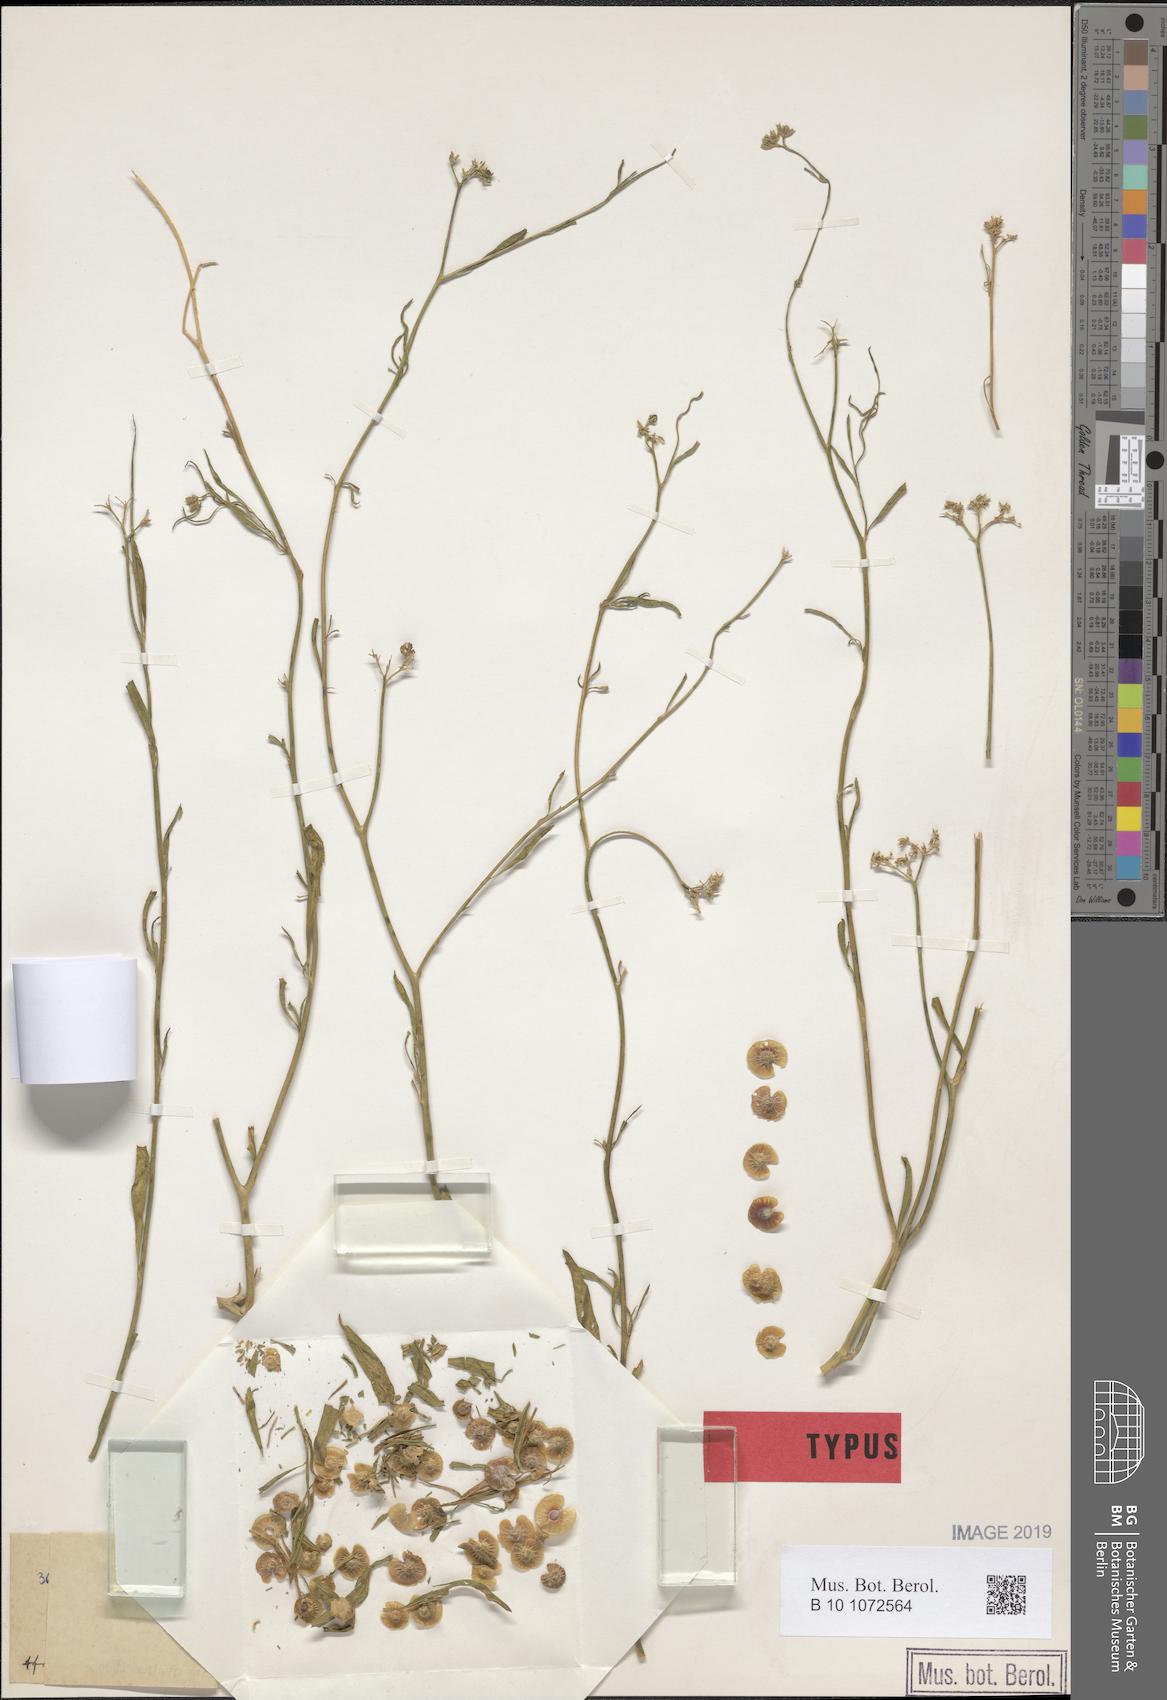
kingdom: Plantae
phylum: Tracheophyta
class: Magnoliopsida
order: Caryophyllales
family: Limeaceae
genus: Limeum
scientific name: Limeum pterocarpum
